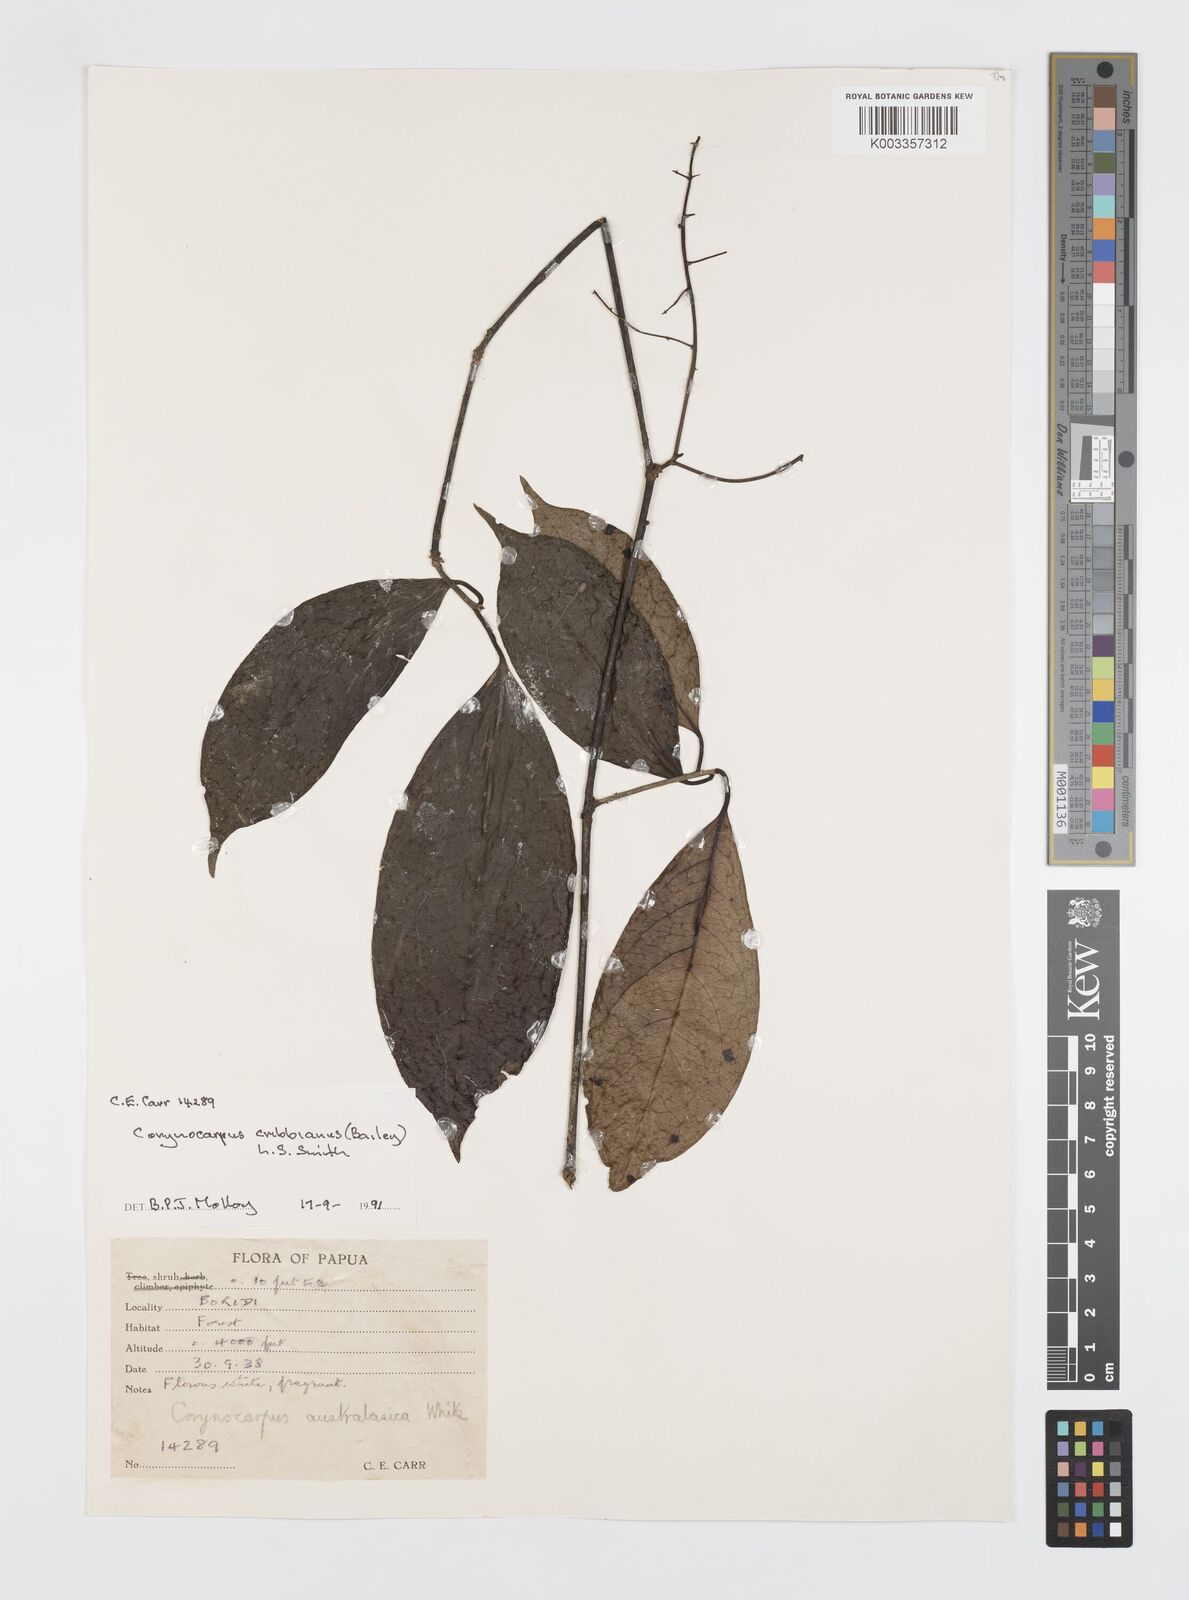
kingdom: Plantae
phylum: Tracheophyta
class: Magnoliopsida
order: Cucurbitales
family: Corynocarpaceae
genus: Corynocarpus
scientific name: Corynocarpus cribbianus
